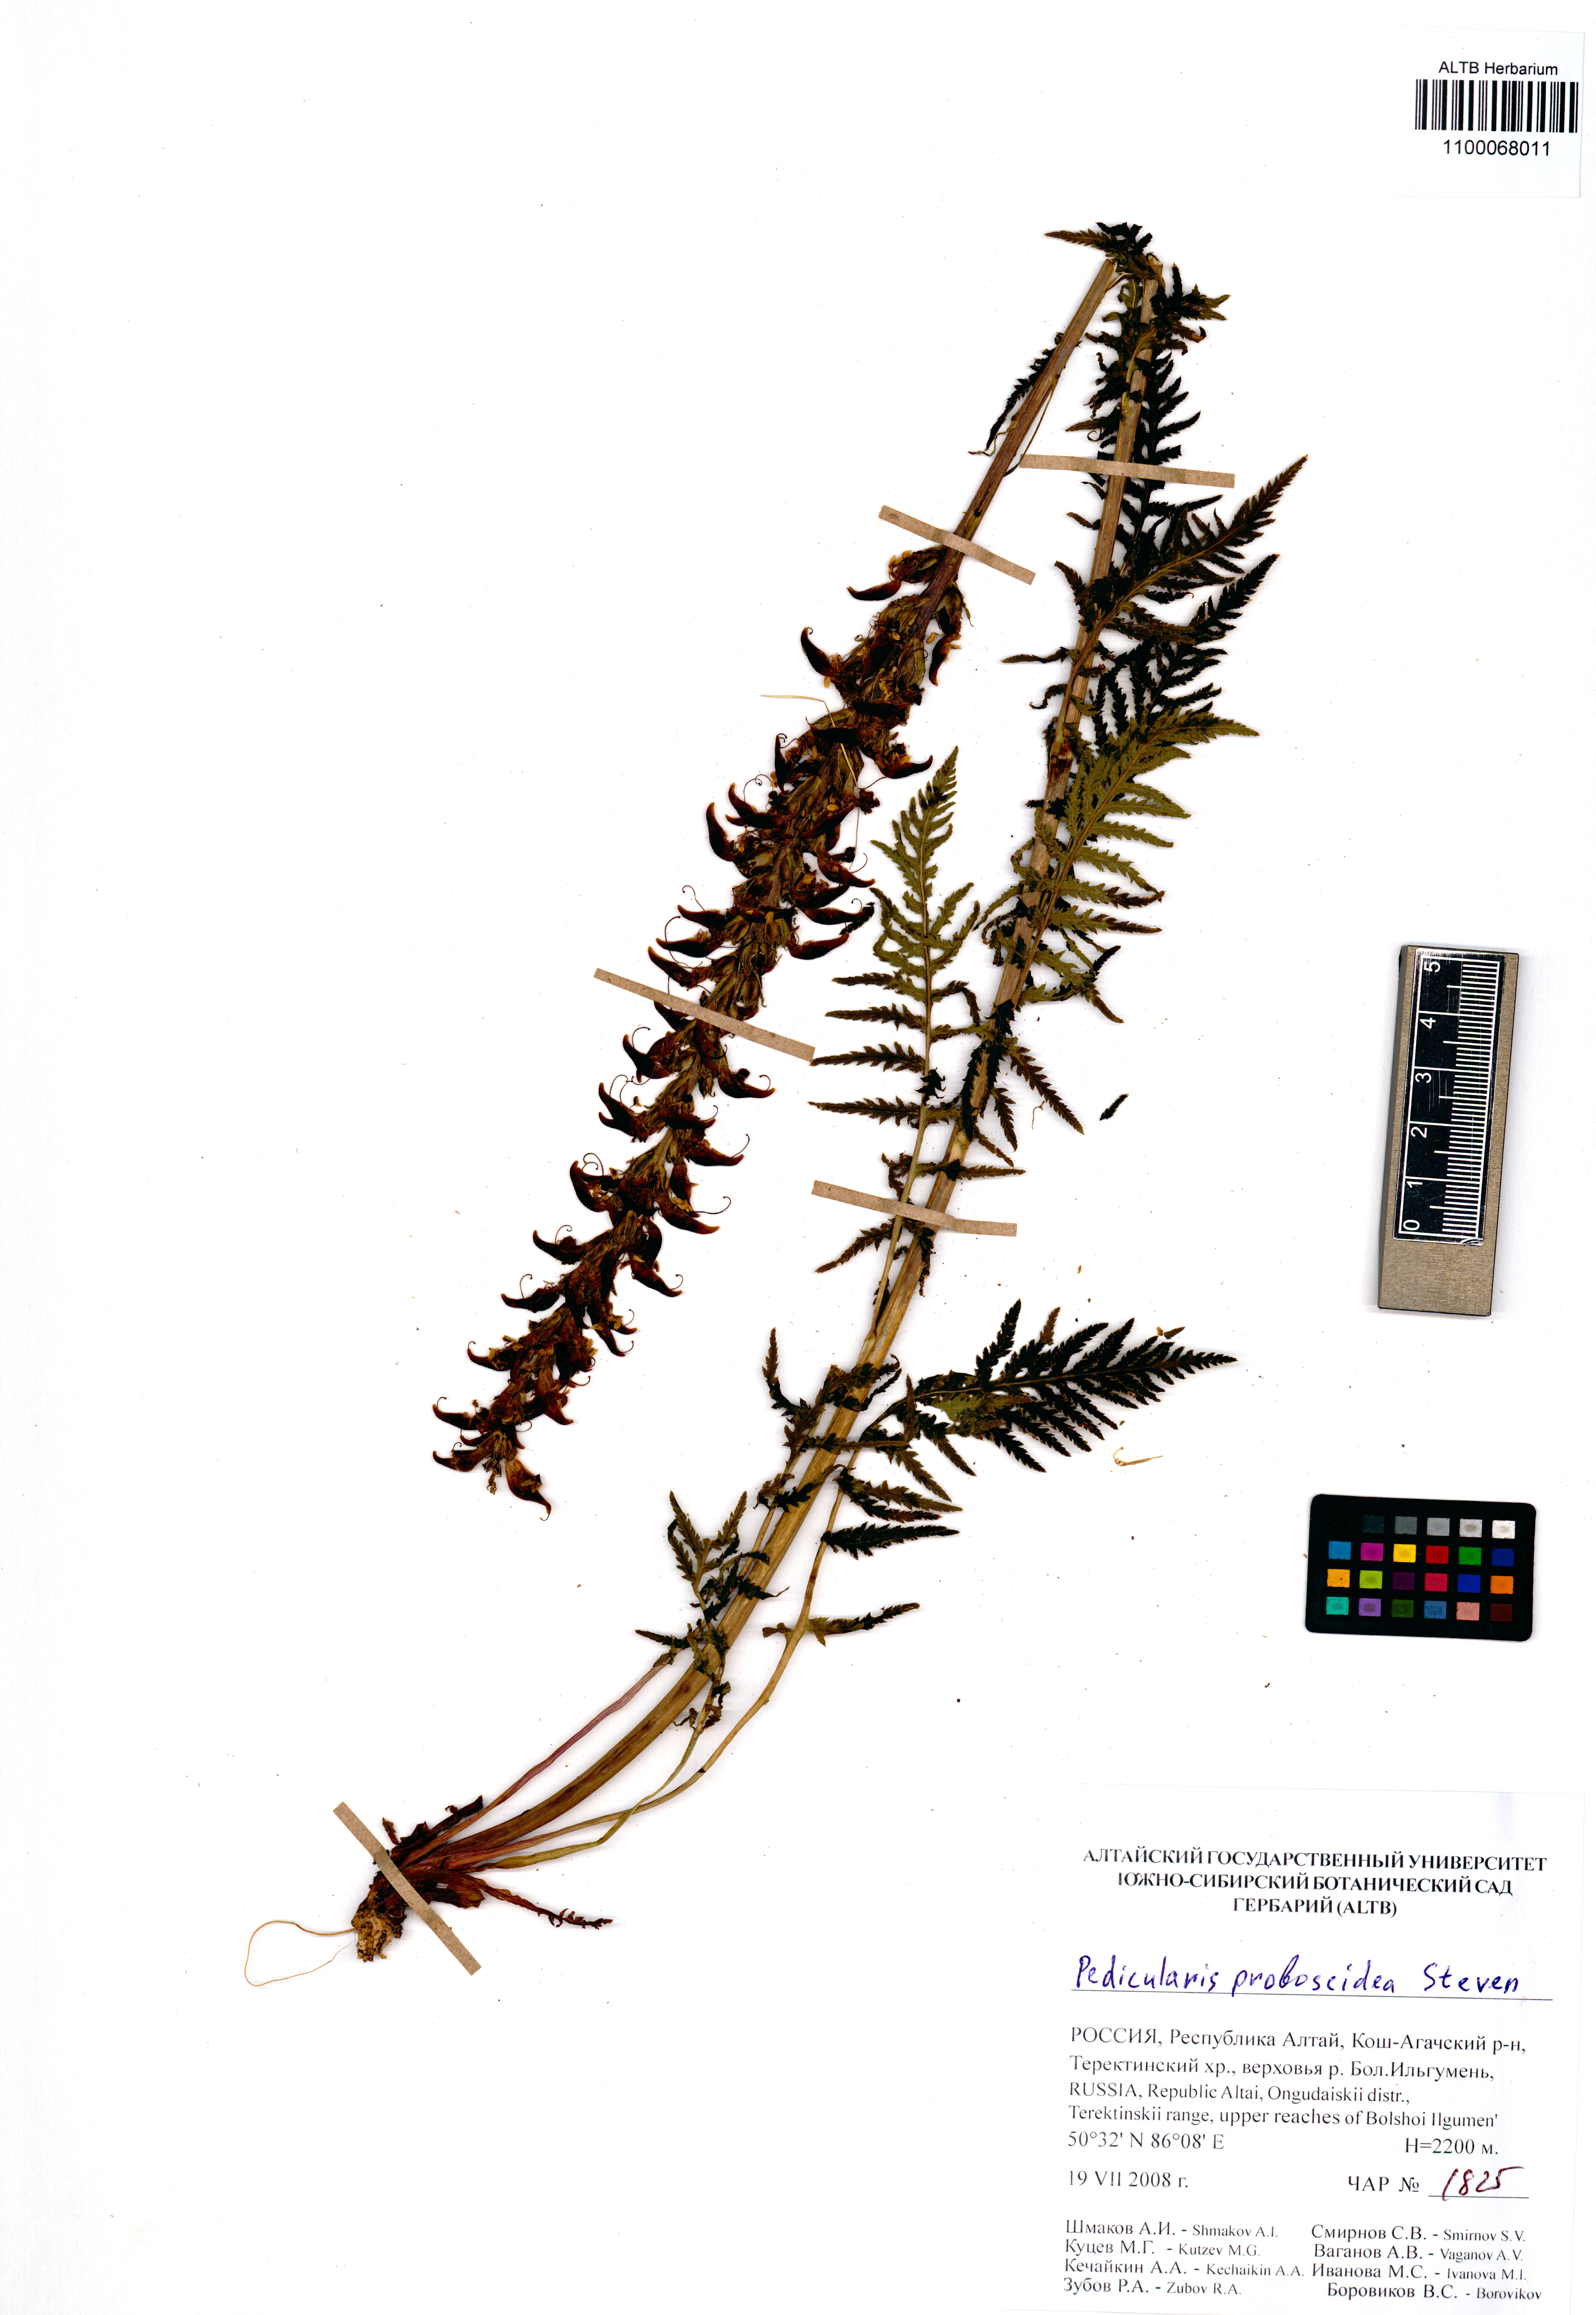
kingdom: Plantae
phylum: Tracheophyta
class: Magnoliopsida
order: Lamiales
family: Orobanchaceae
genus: Pedicularis
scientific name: Pedicularis cenisia
